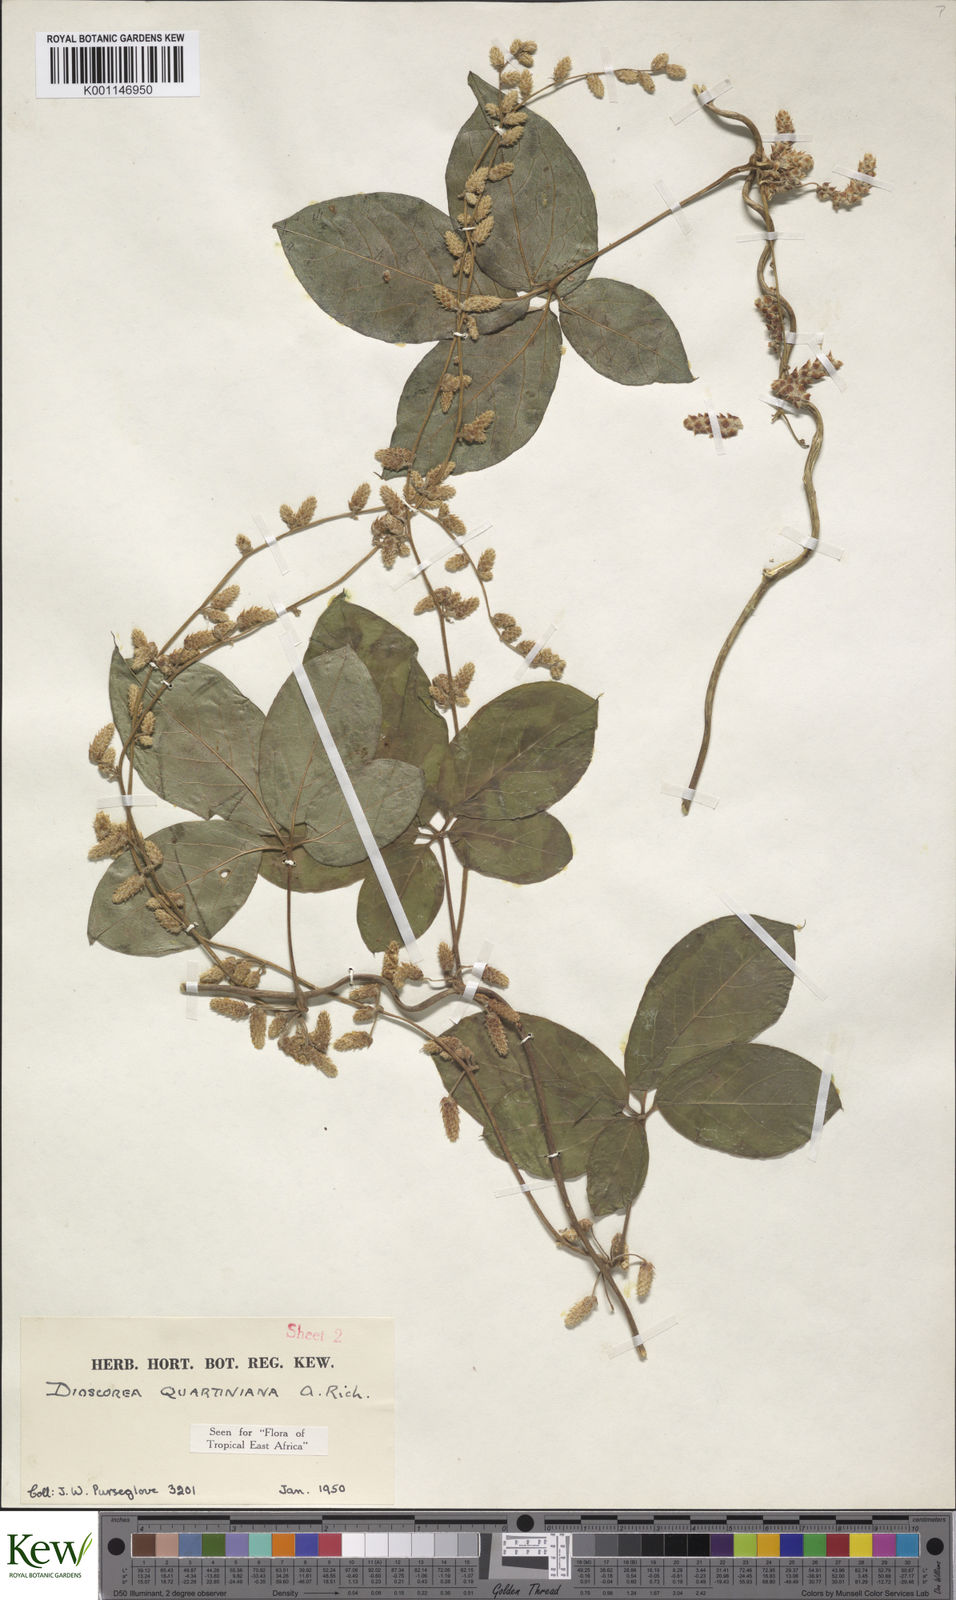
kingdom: Plantae
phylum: Tracheophyta
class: Liliopsida
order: Dioscoreales
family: Dioscoreaceae
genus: Dioscorea
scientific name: Dioscorea quartiniana
